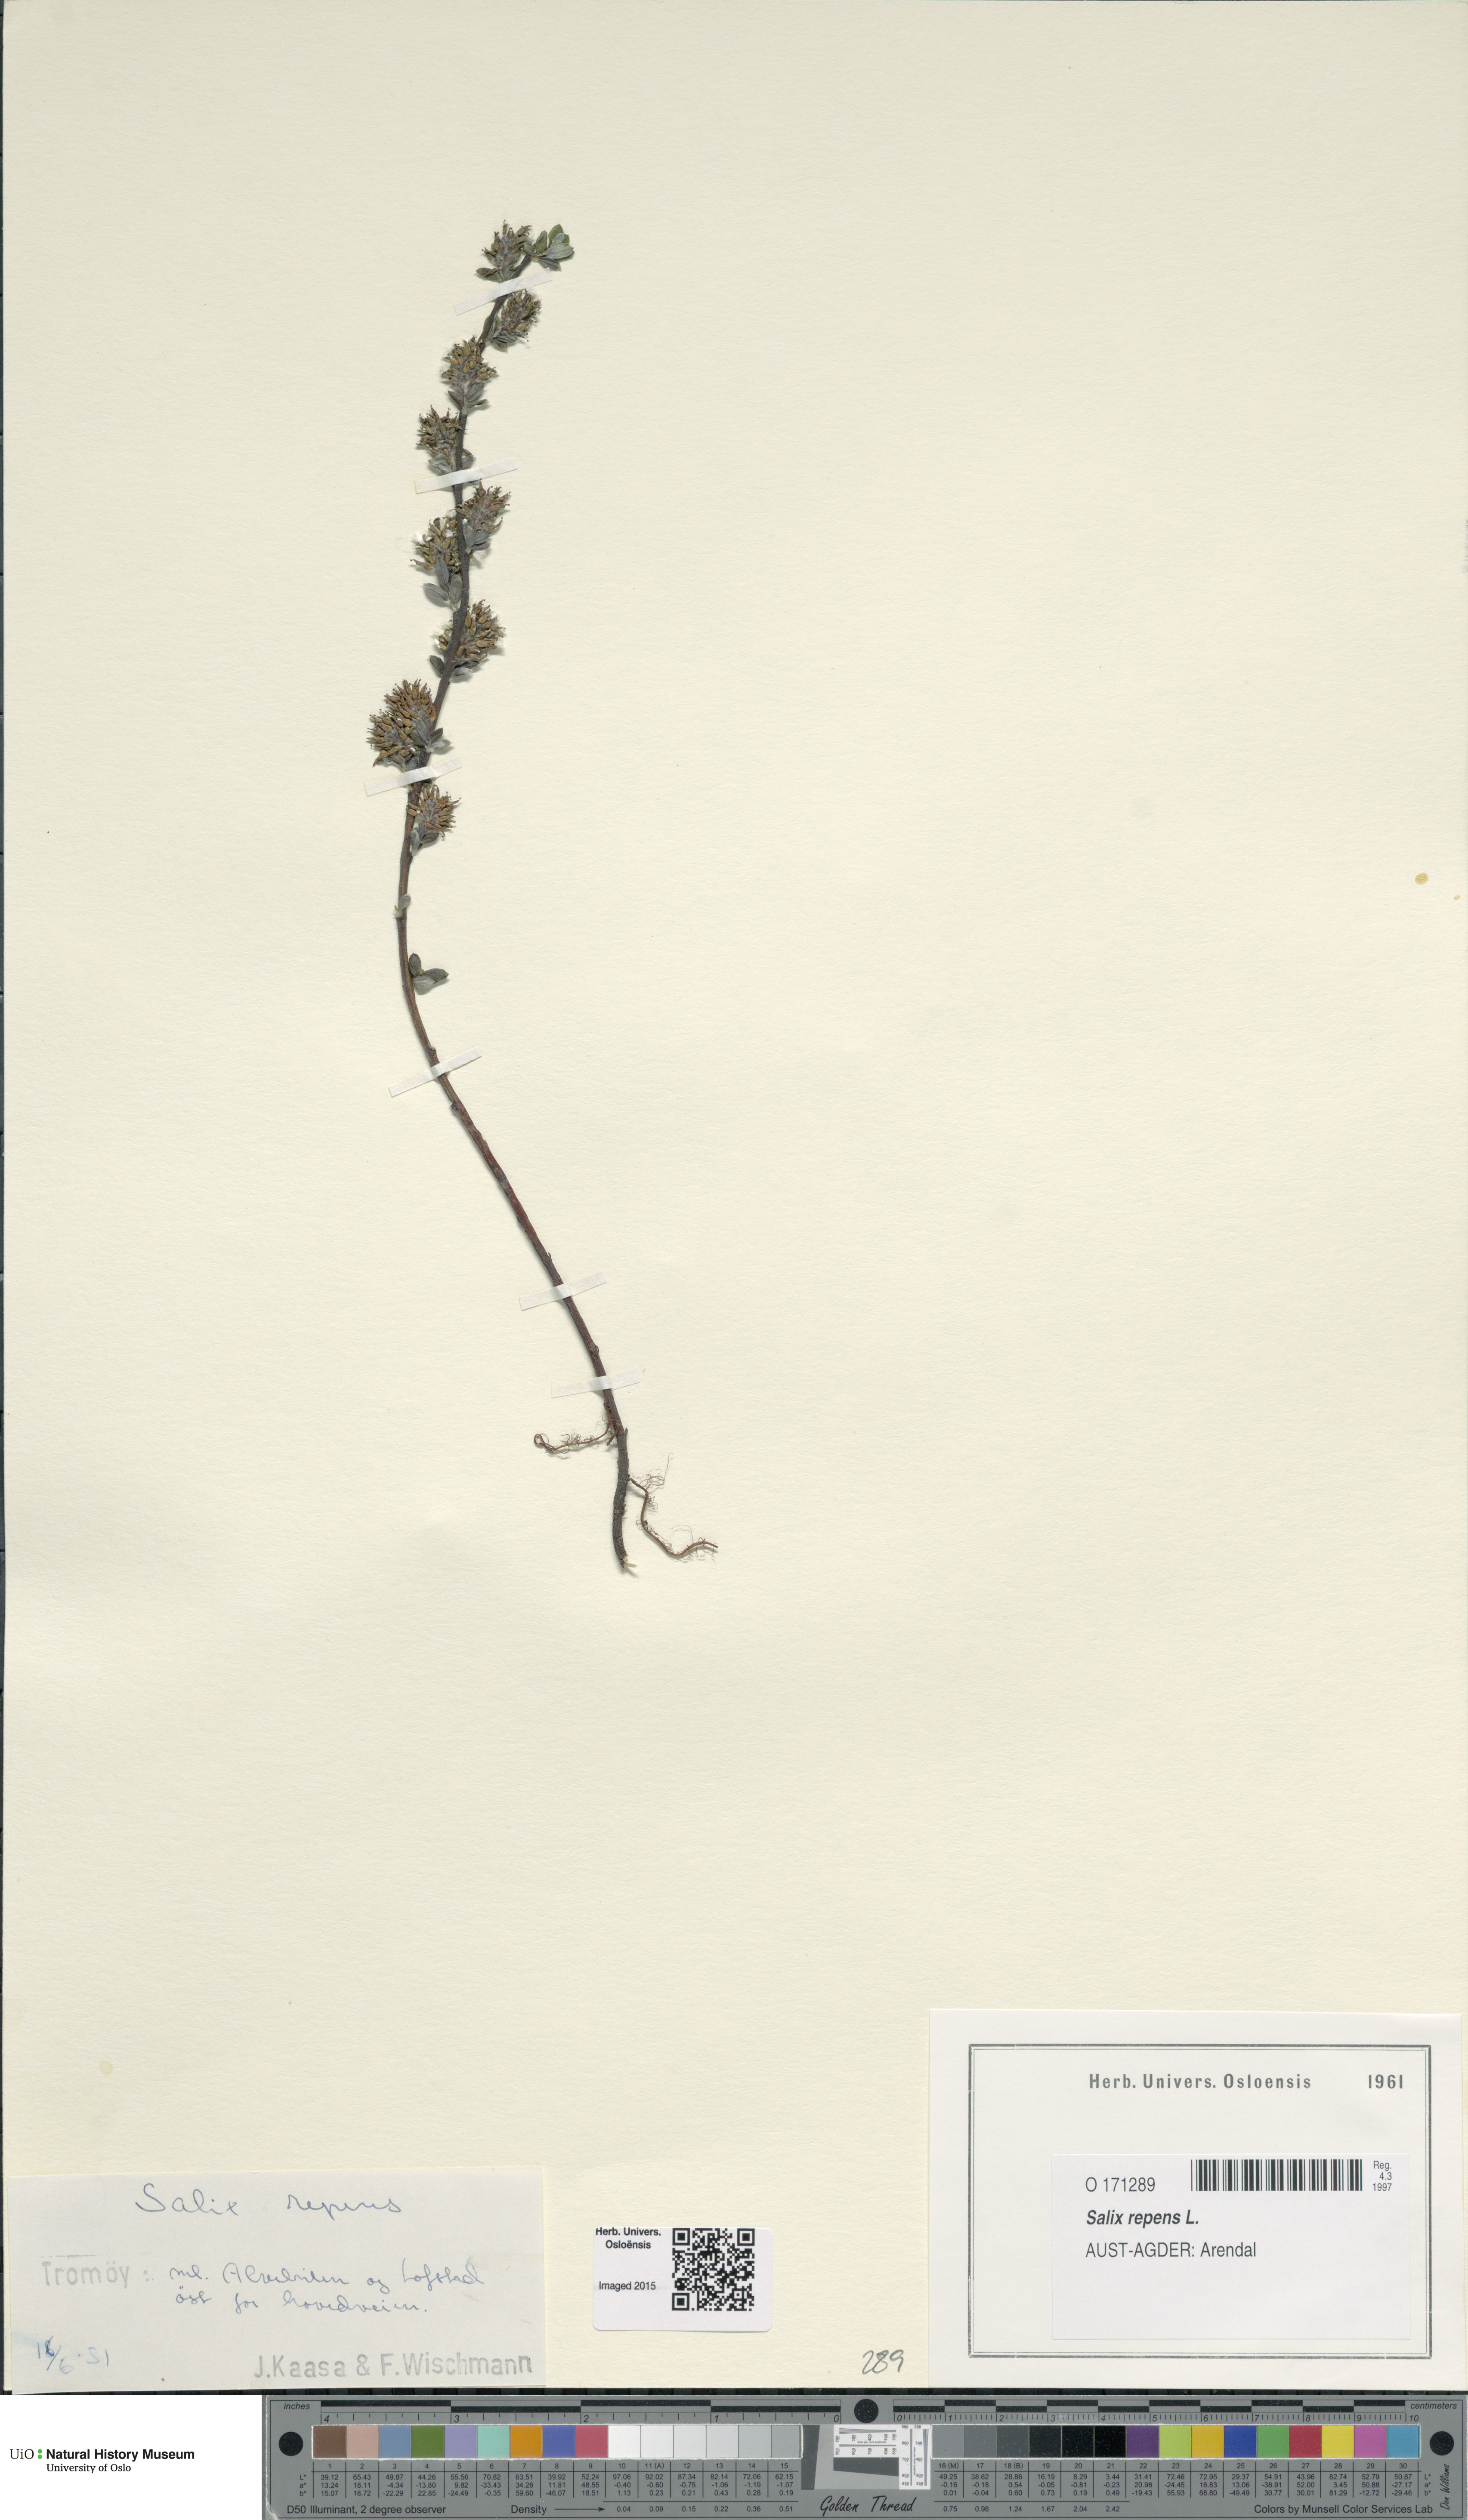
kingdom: Plantae
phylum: Tracheophyta
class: Magnoliopsida
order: Malpighiales
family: Salicaceae
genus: Salix
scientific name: Salix repens
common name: Creeping willow
